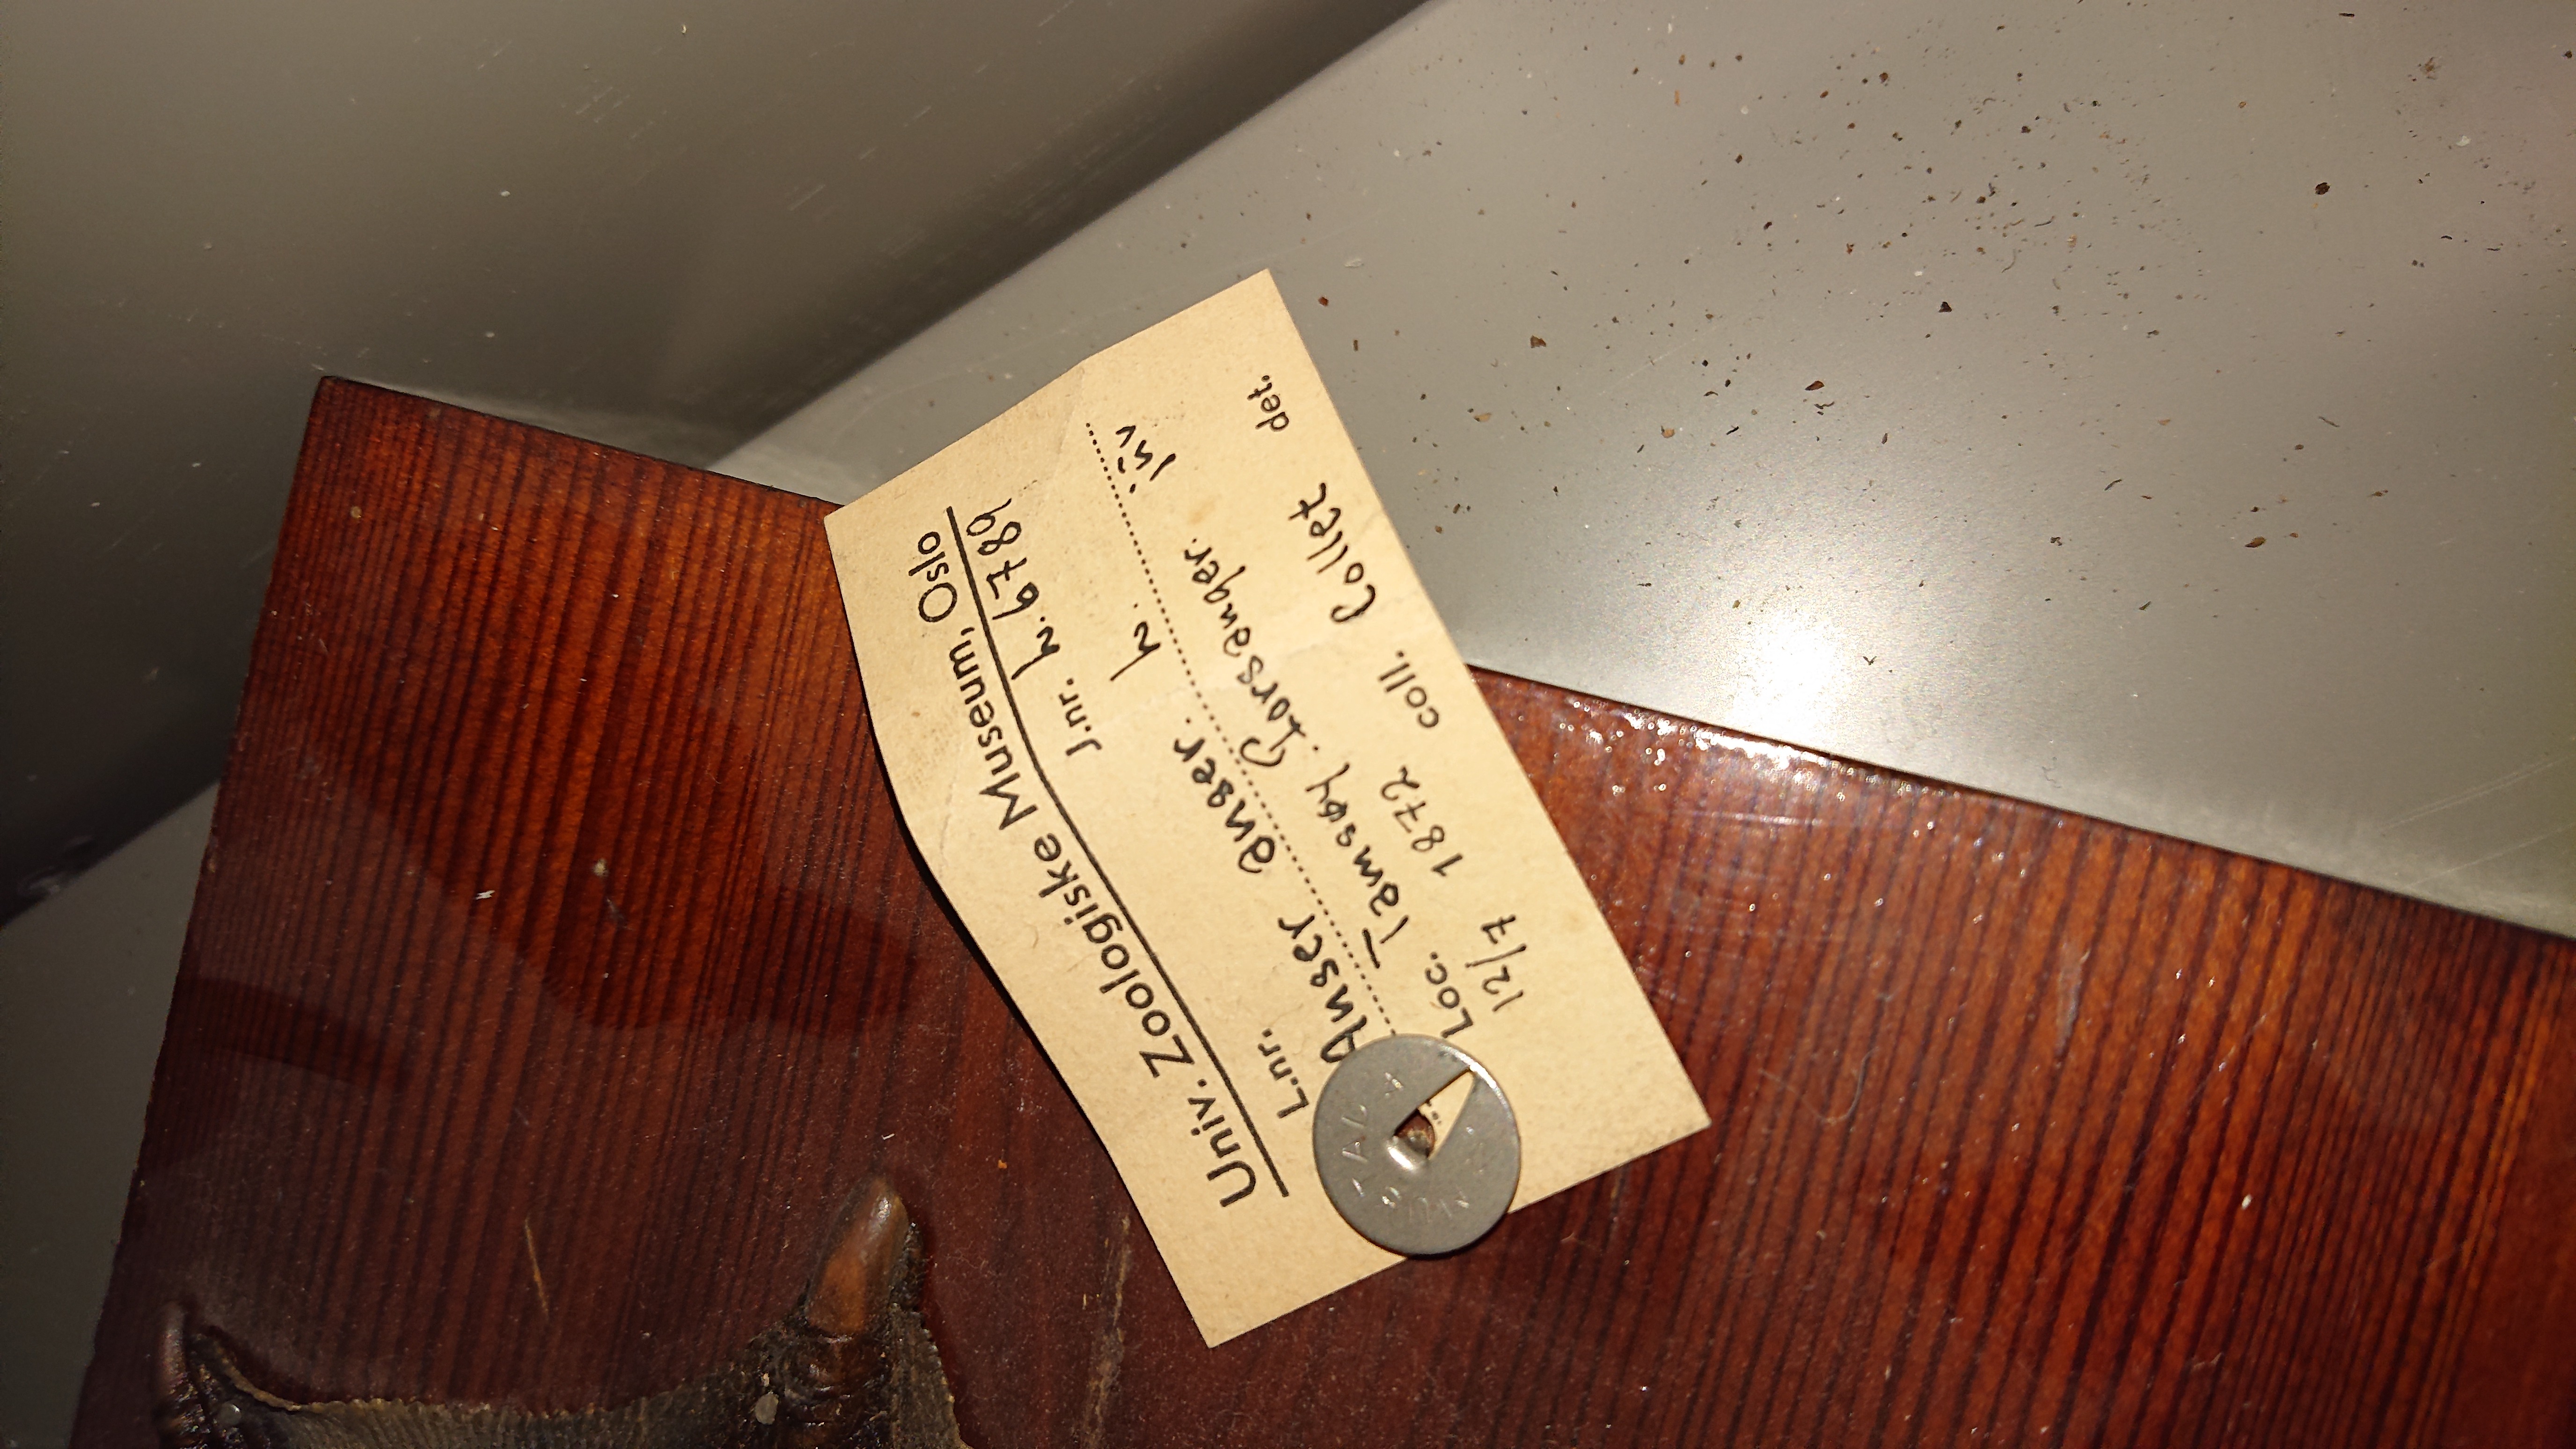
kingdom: Animalia
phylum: Chordata
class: Aves
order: Anseriformes
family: Anatidae
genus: Anser
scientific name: Anser anser
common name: Greylag goose
